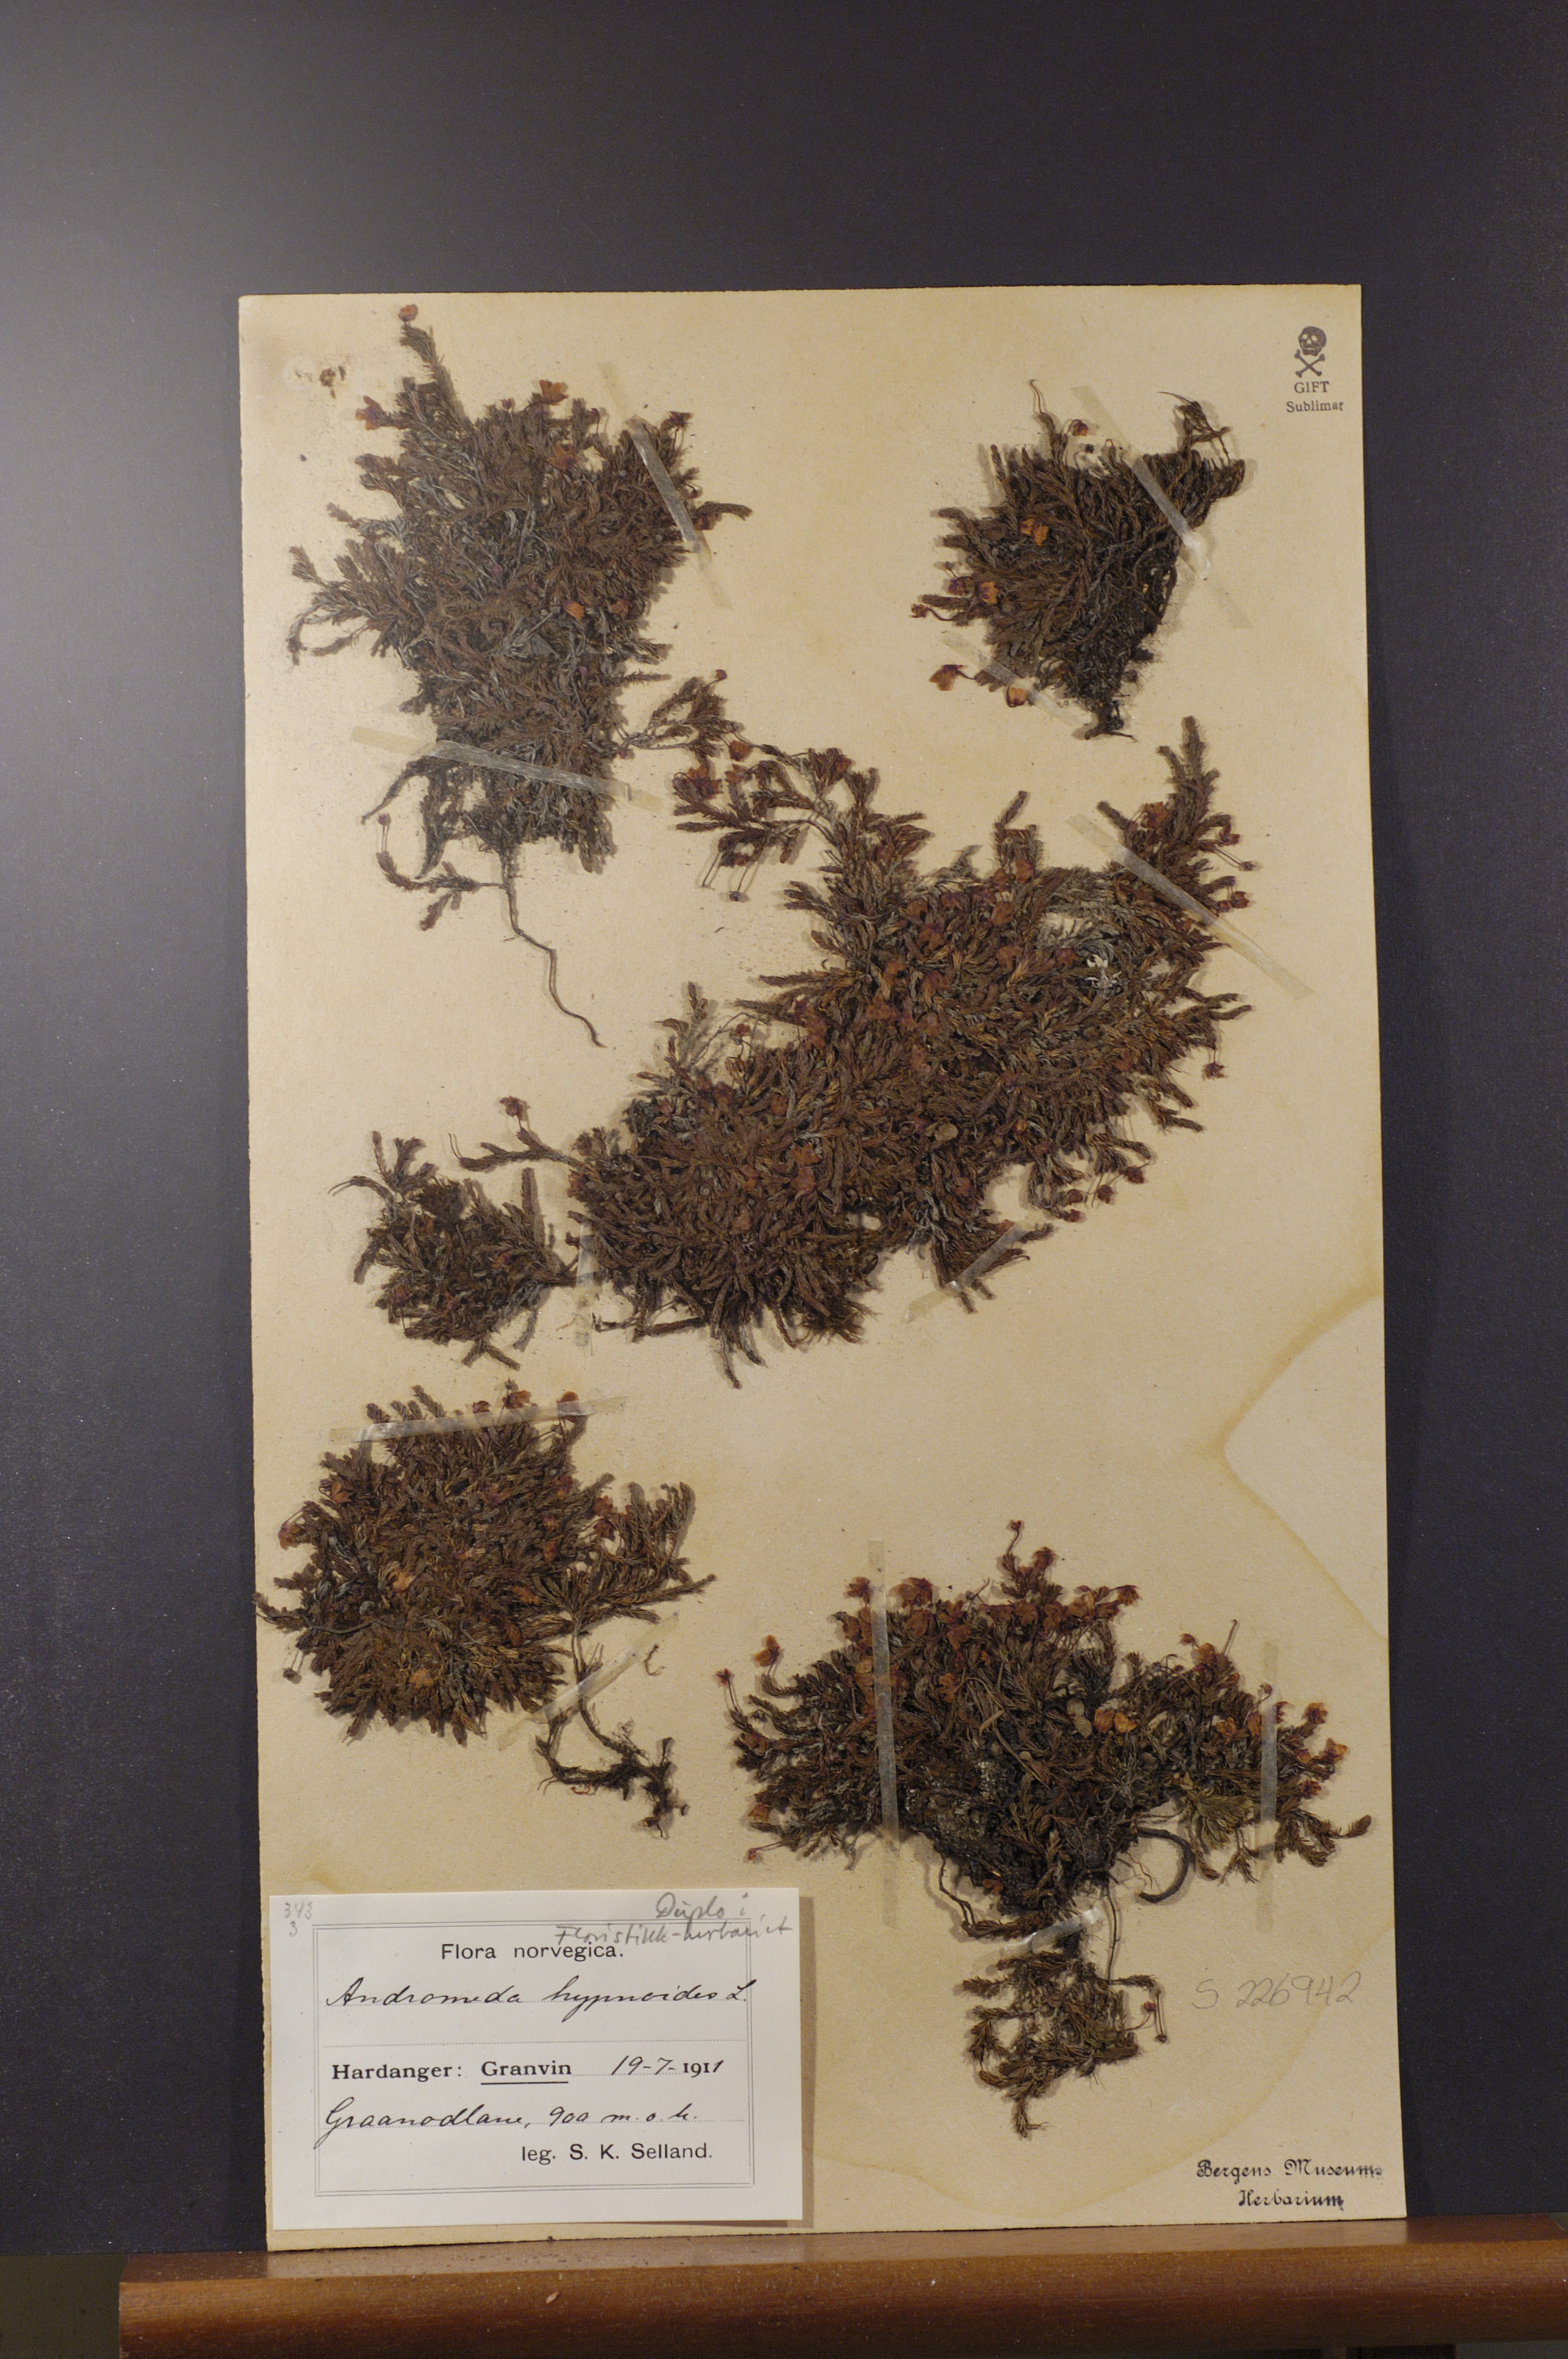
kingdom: Plantae
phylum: Tracheophyta
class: Magnoliopsida
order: Ericales
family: Ericaceae
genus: Harrimanella
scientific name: Harrimanella hypnoides
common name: Moss bell heather
